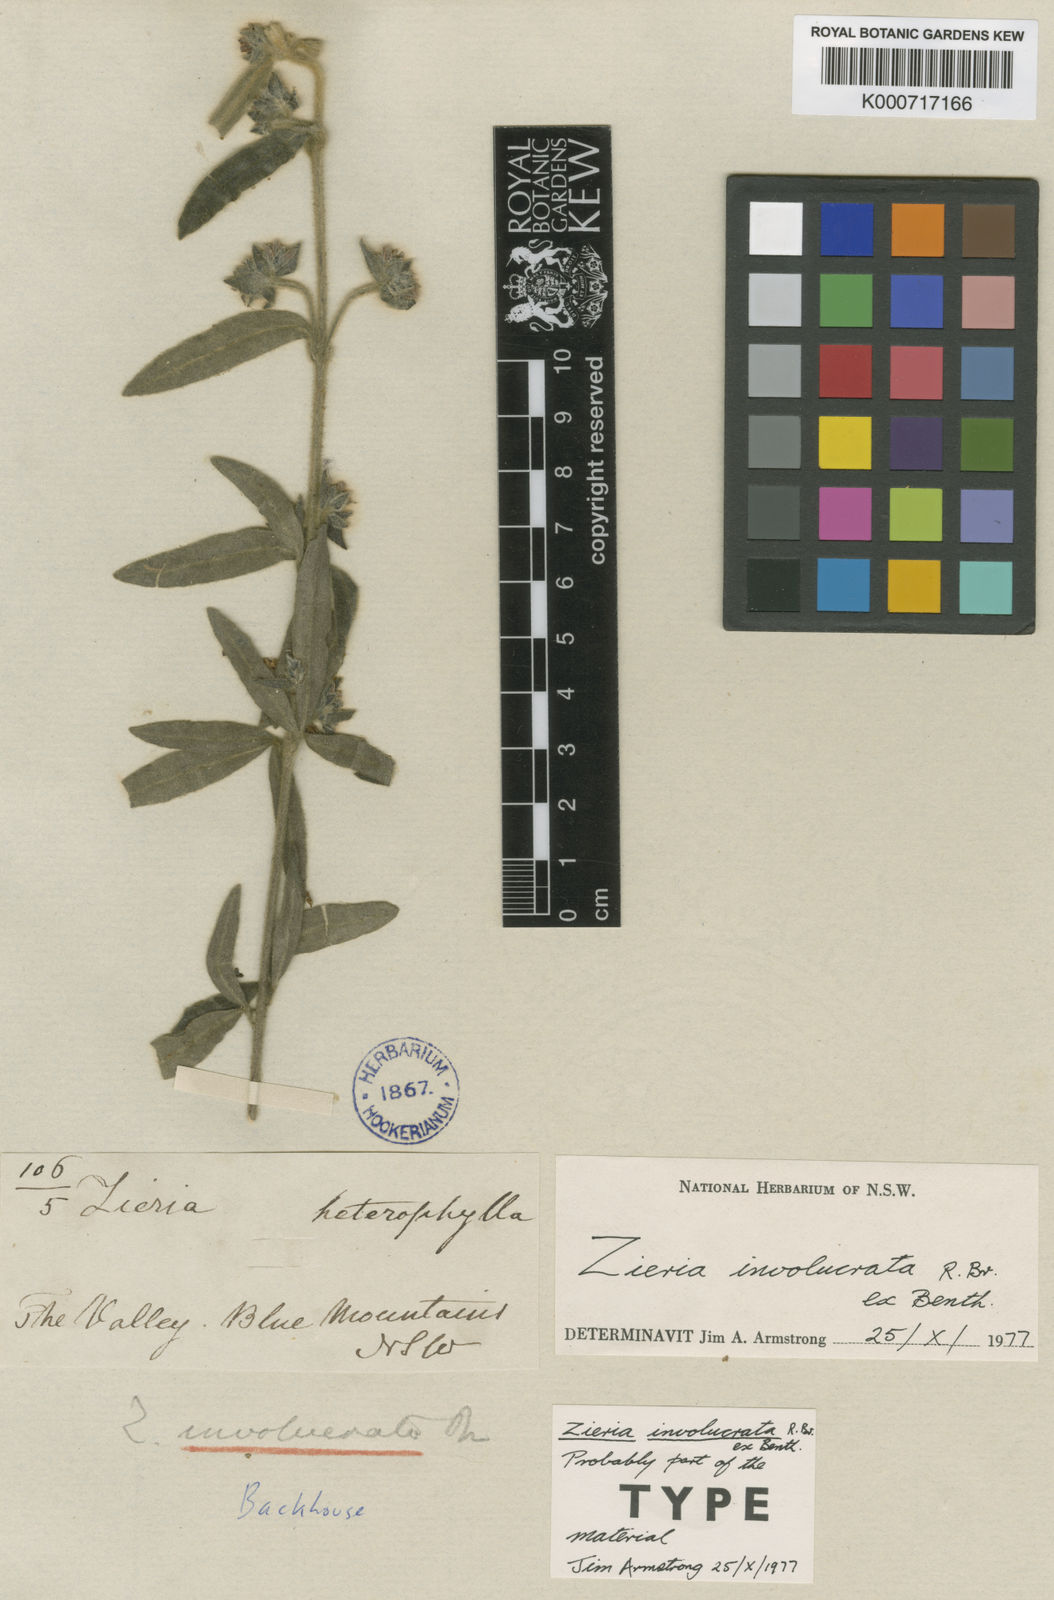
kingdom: Plantae
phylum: Tracheophyta
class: Magnoliopsida
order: Sapindales
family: Rutaceae
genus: Zieria
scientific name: Zieria involucrata
